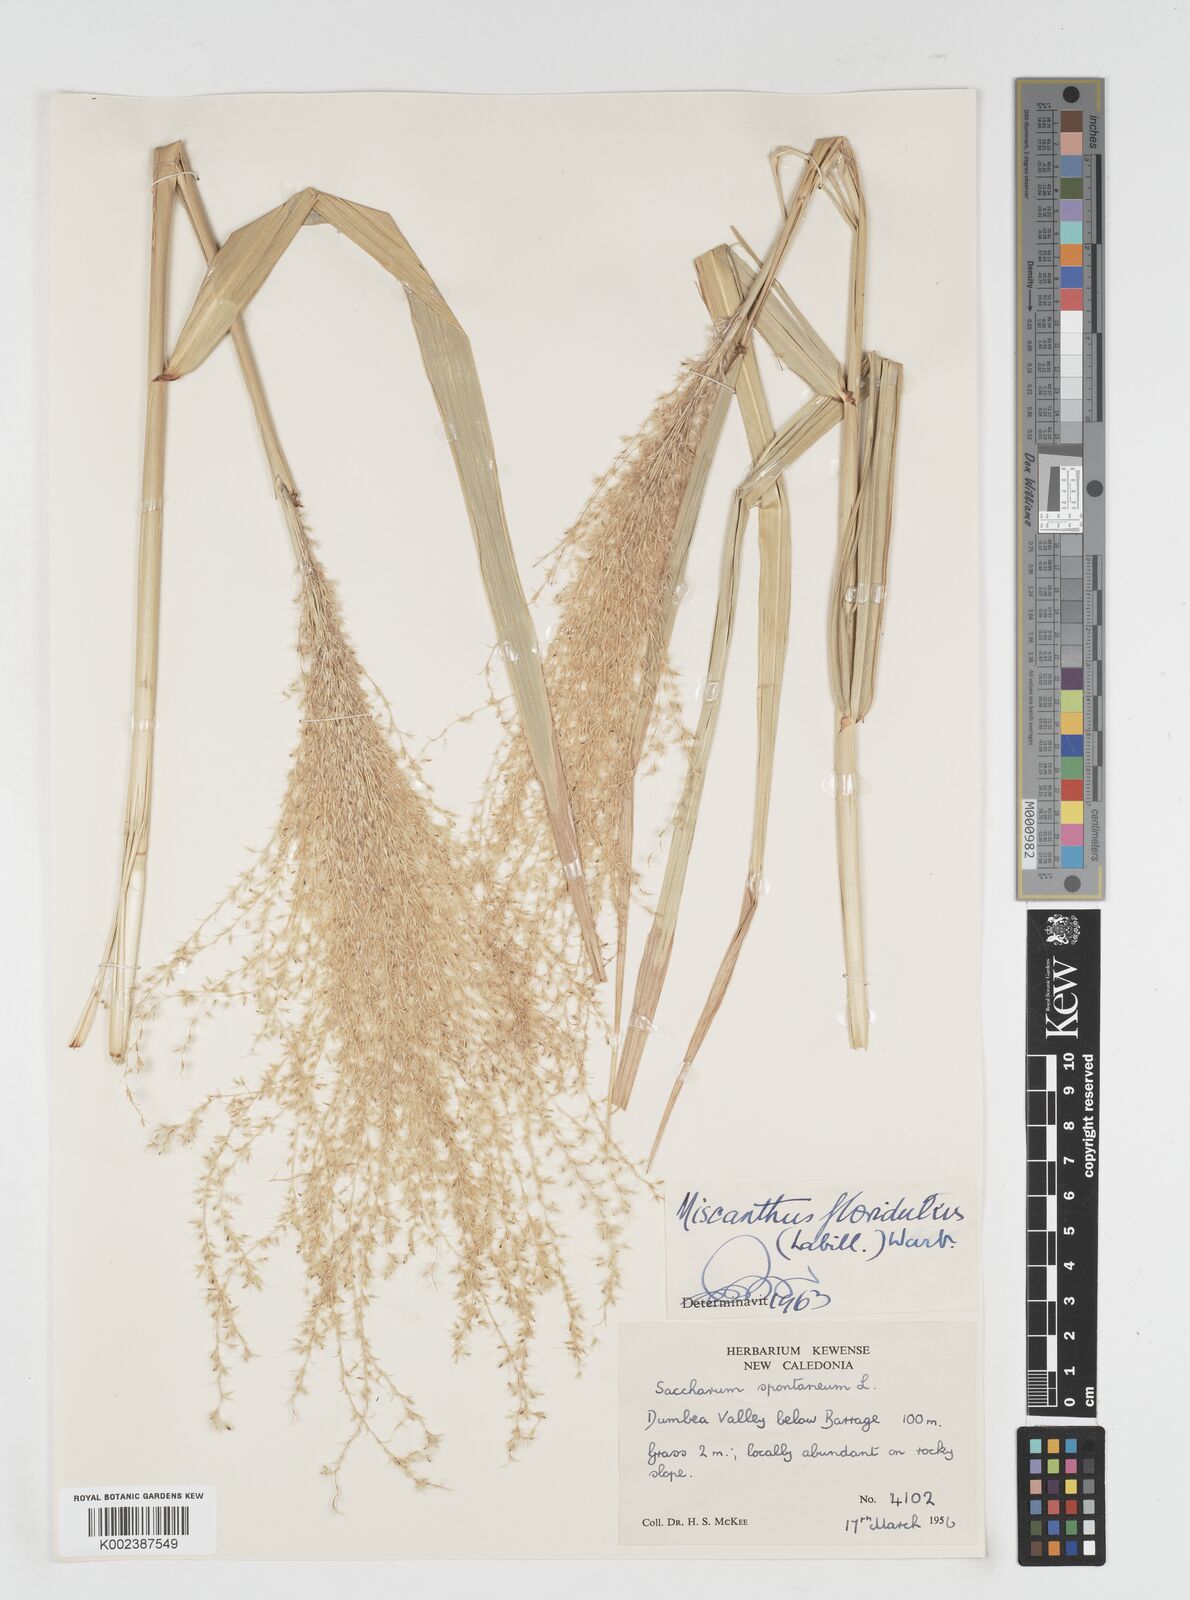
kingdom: Plantae
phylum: Tracheophyta
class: Liliopsida
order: Poales
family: Poaceae
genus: Miscanthus
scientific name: Miscanthus floridulus
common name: Pacific island silvergrass
